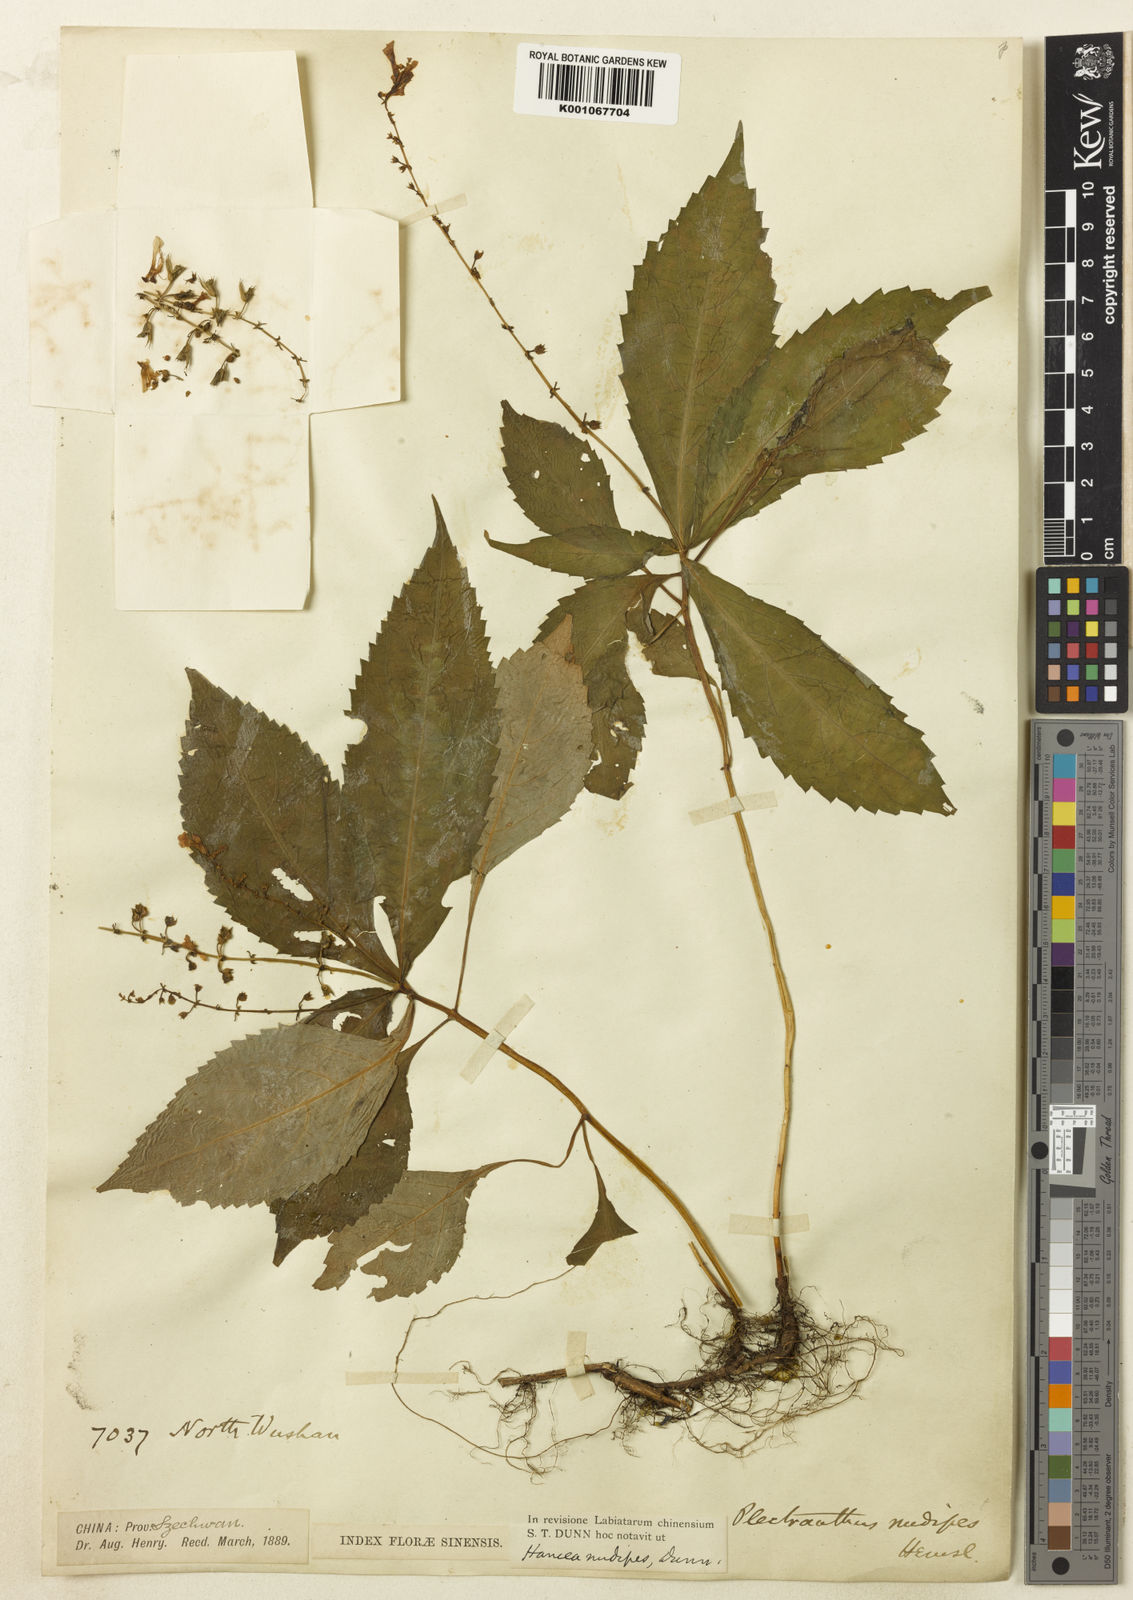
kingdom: Plantae
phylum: Tracheophyta
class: Magnoliopsida
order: Lamiales
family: Lamiaceae
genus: Siphocranion
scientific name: Siphocranion
